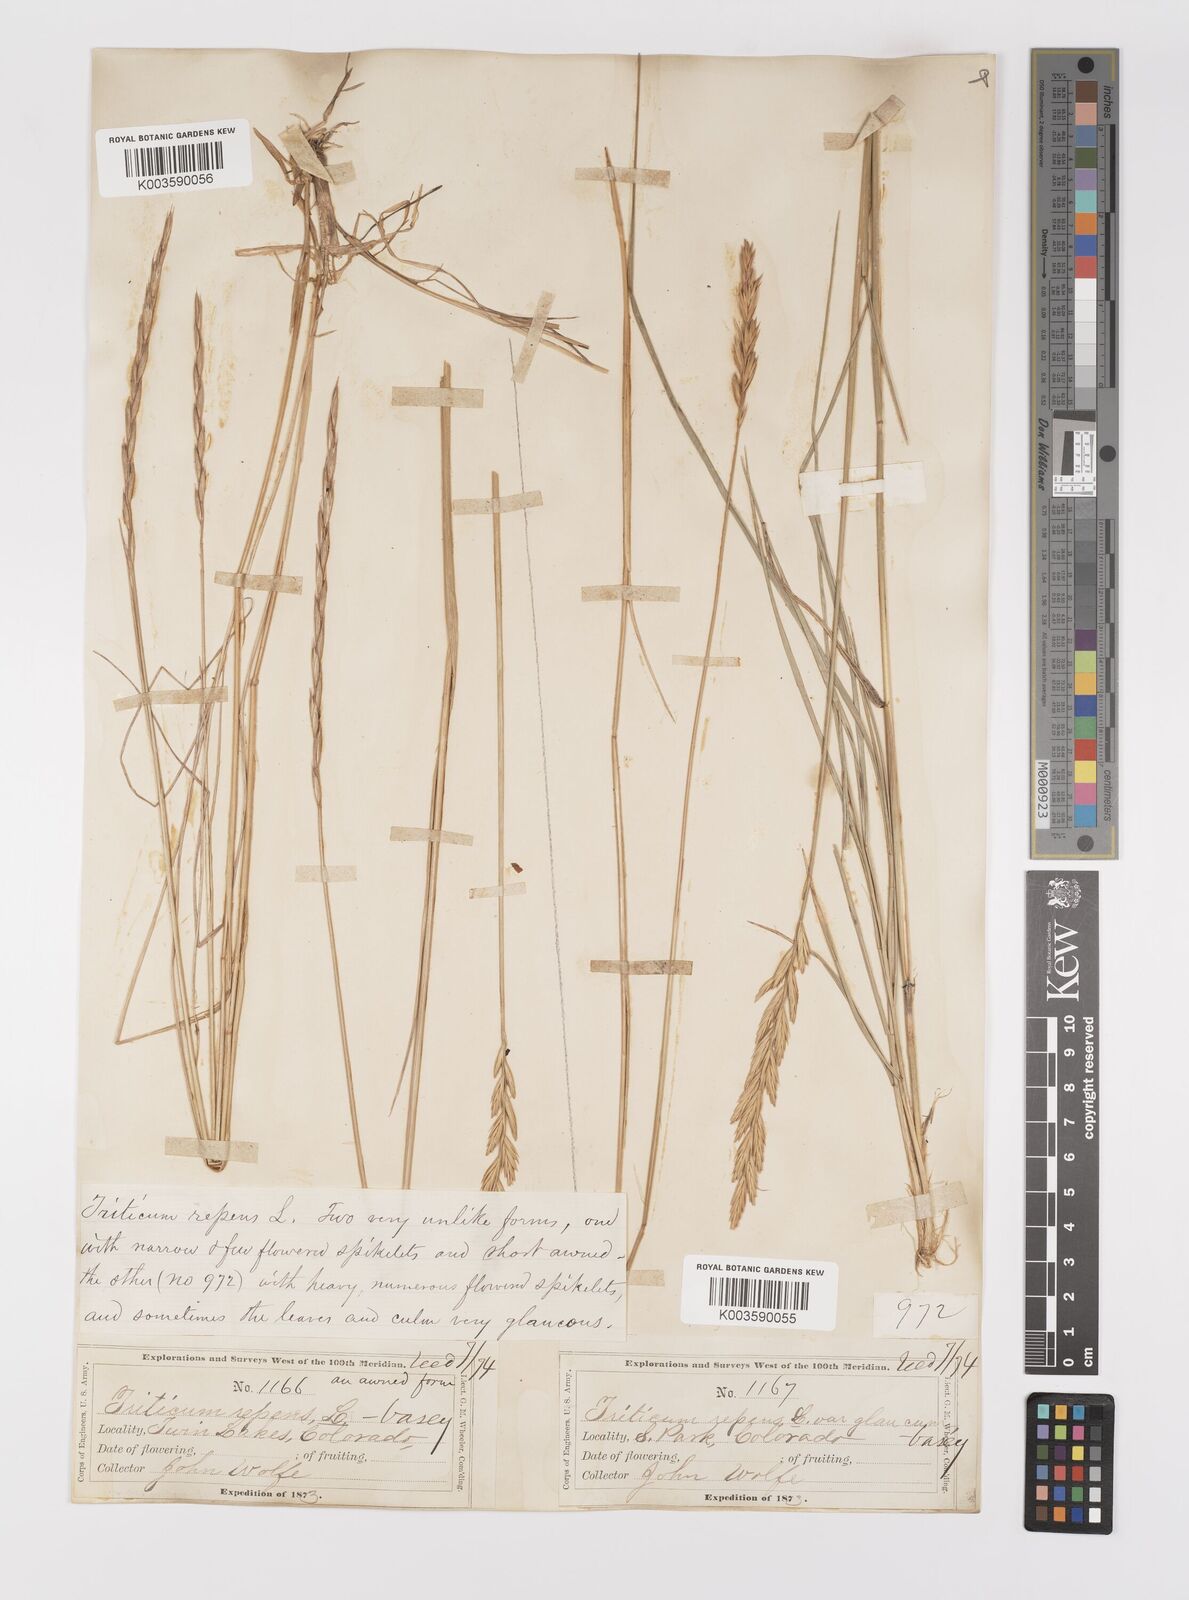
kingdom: Plantae
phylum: Tracheophyta
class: Liliopsida
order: Poales
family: Poaceae
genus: Elymus
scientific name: Elymus repens
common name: Quackgrass
